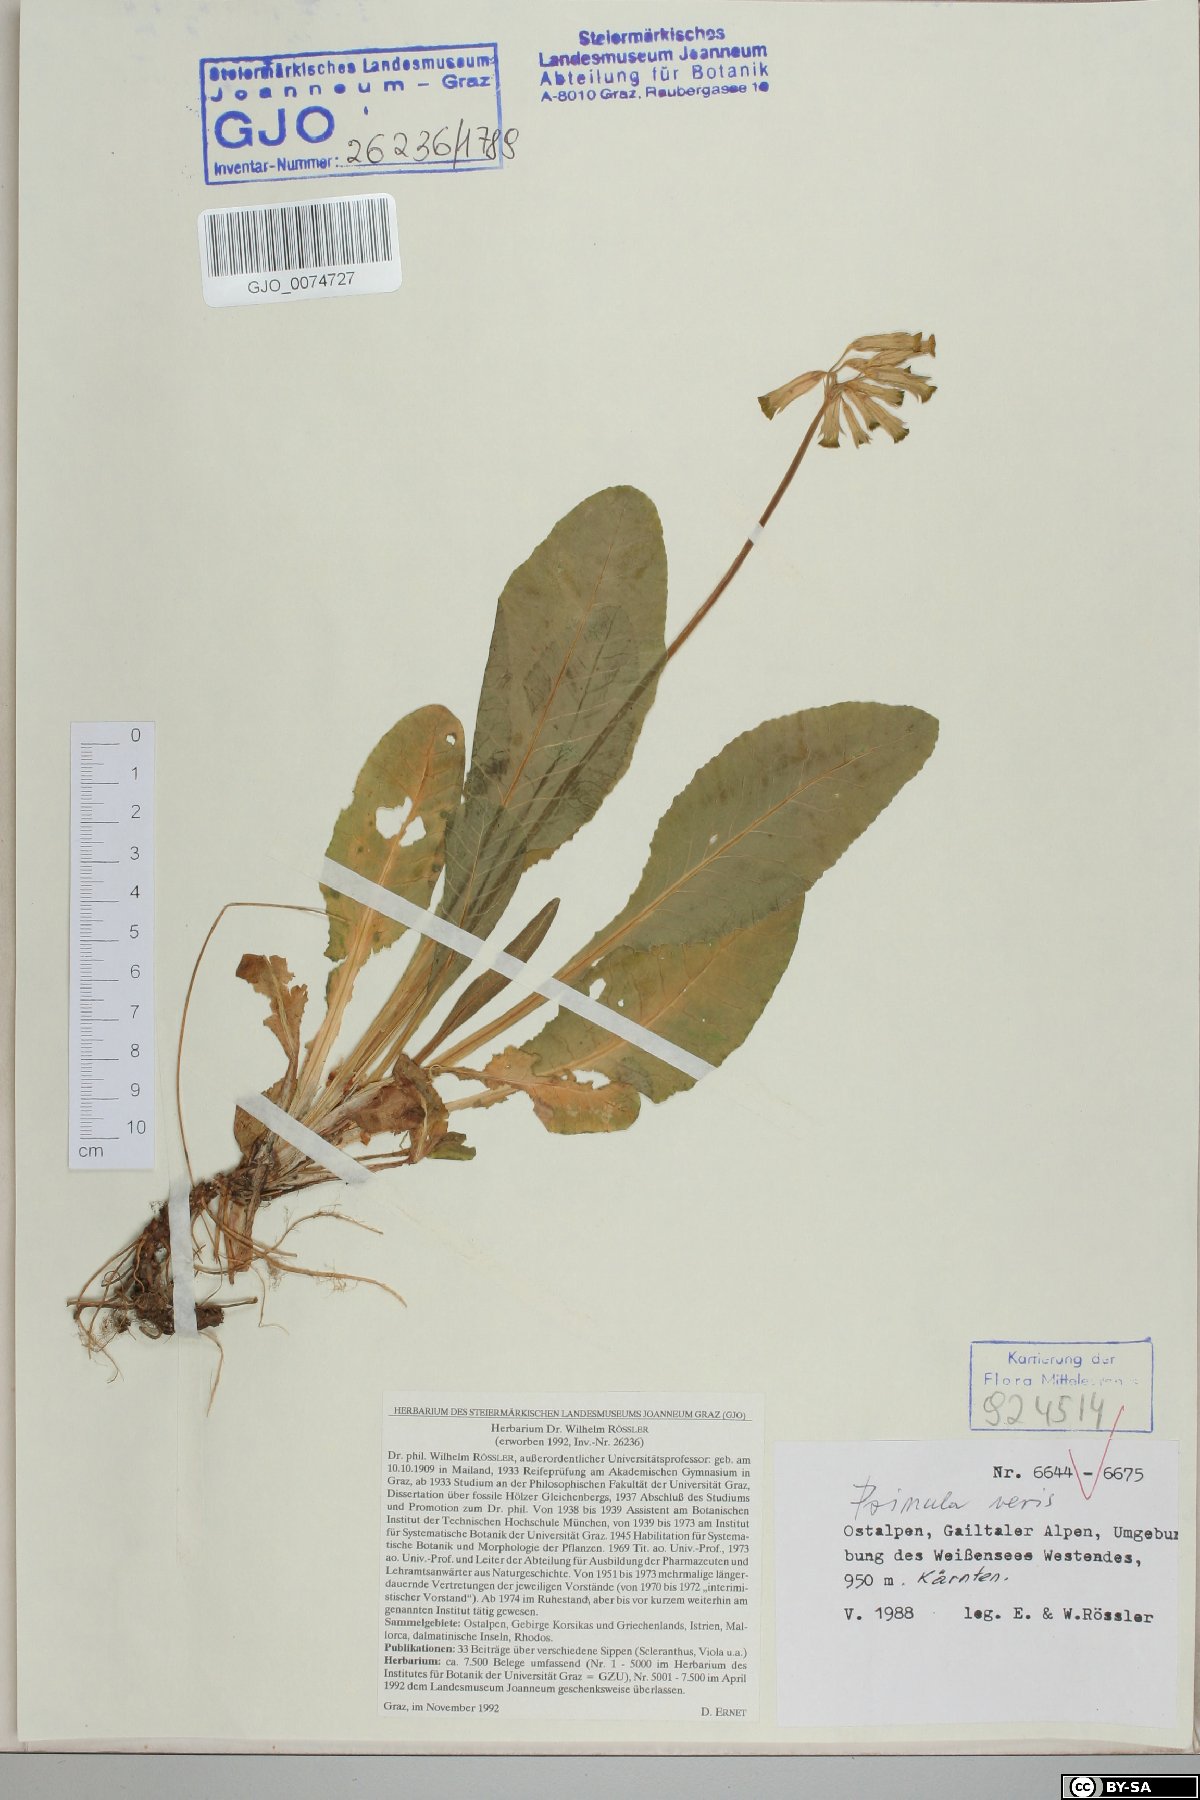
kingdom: Plantae
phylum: Tracheophyta
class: Magnoliopsida
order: Ericales
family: Primulaceae
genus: Primula
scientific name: Primula veris
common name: Cowslip
